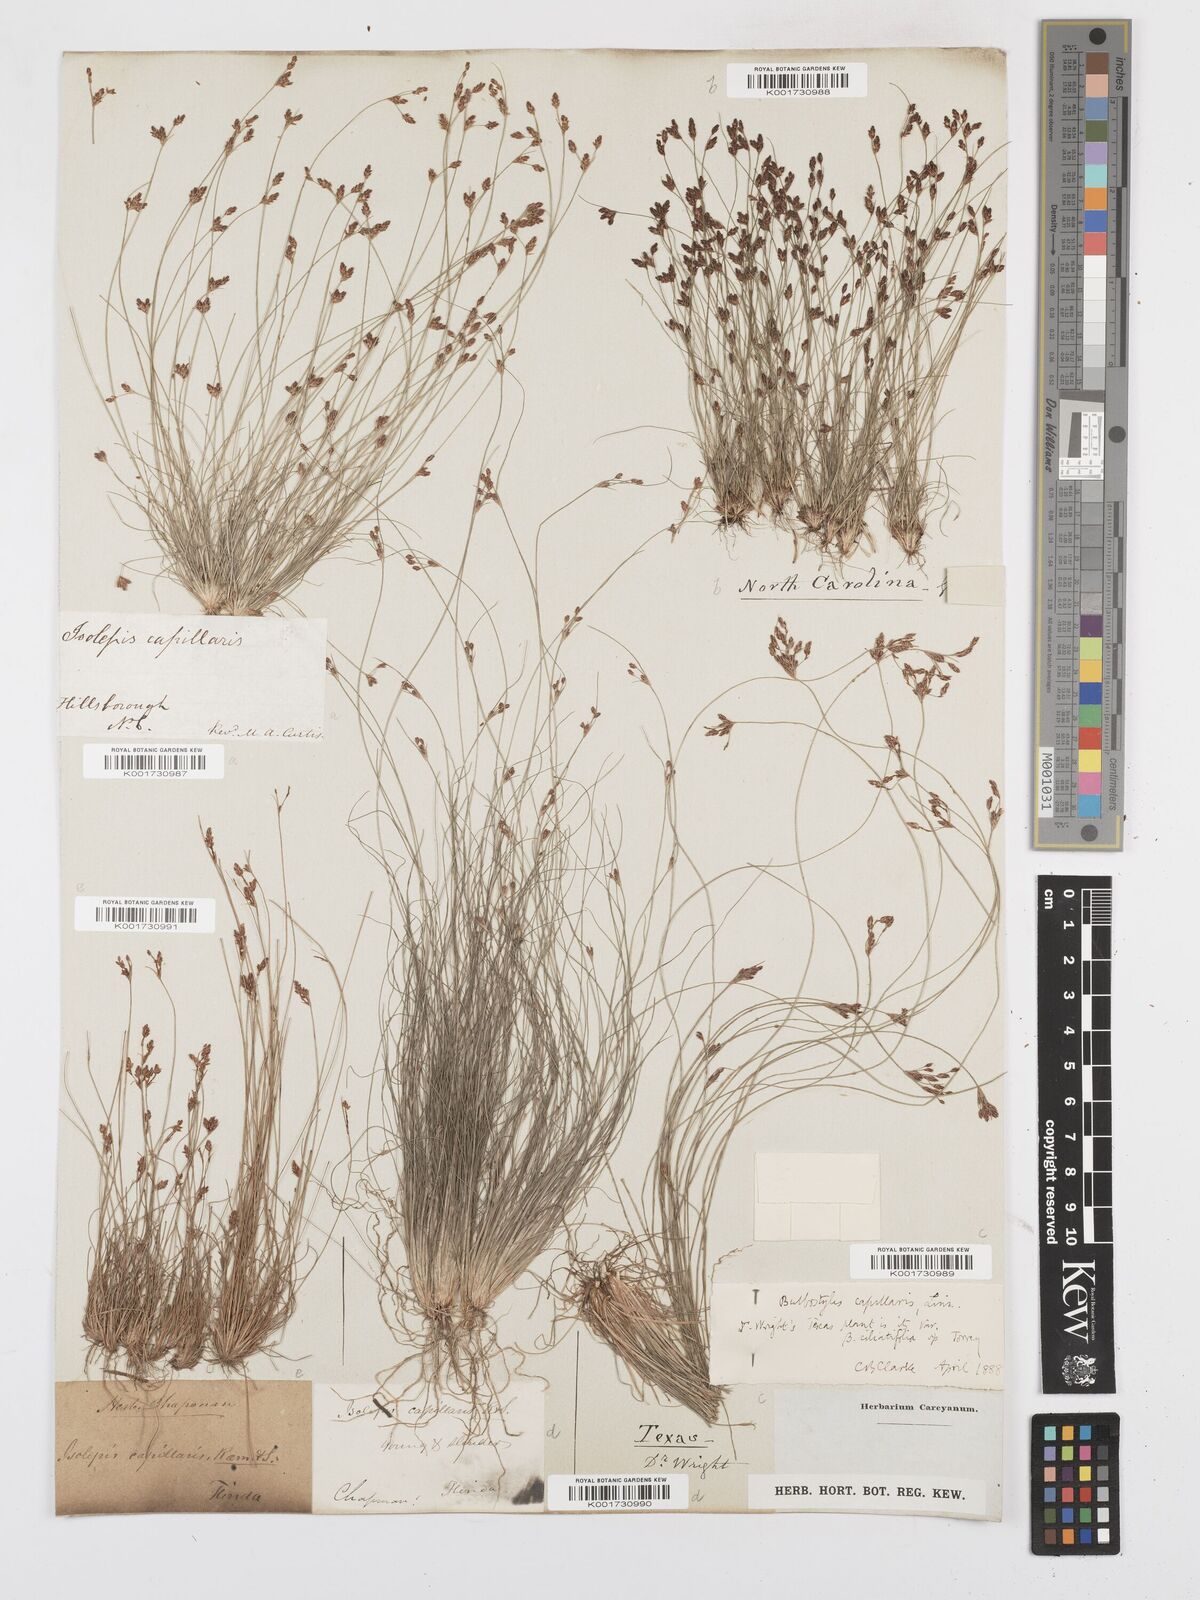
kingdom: Plantae
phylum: Tracheophyta
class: Liliopsida
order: Poales
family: Cyperaceae
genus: Bulbostylis
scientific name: Bulbostylis capillaris
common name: Densetuft hairsedge
